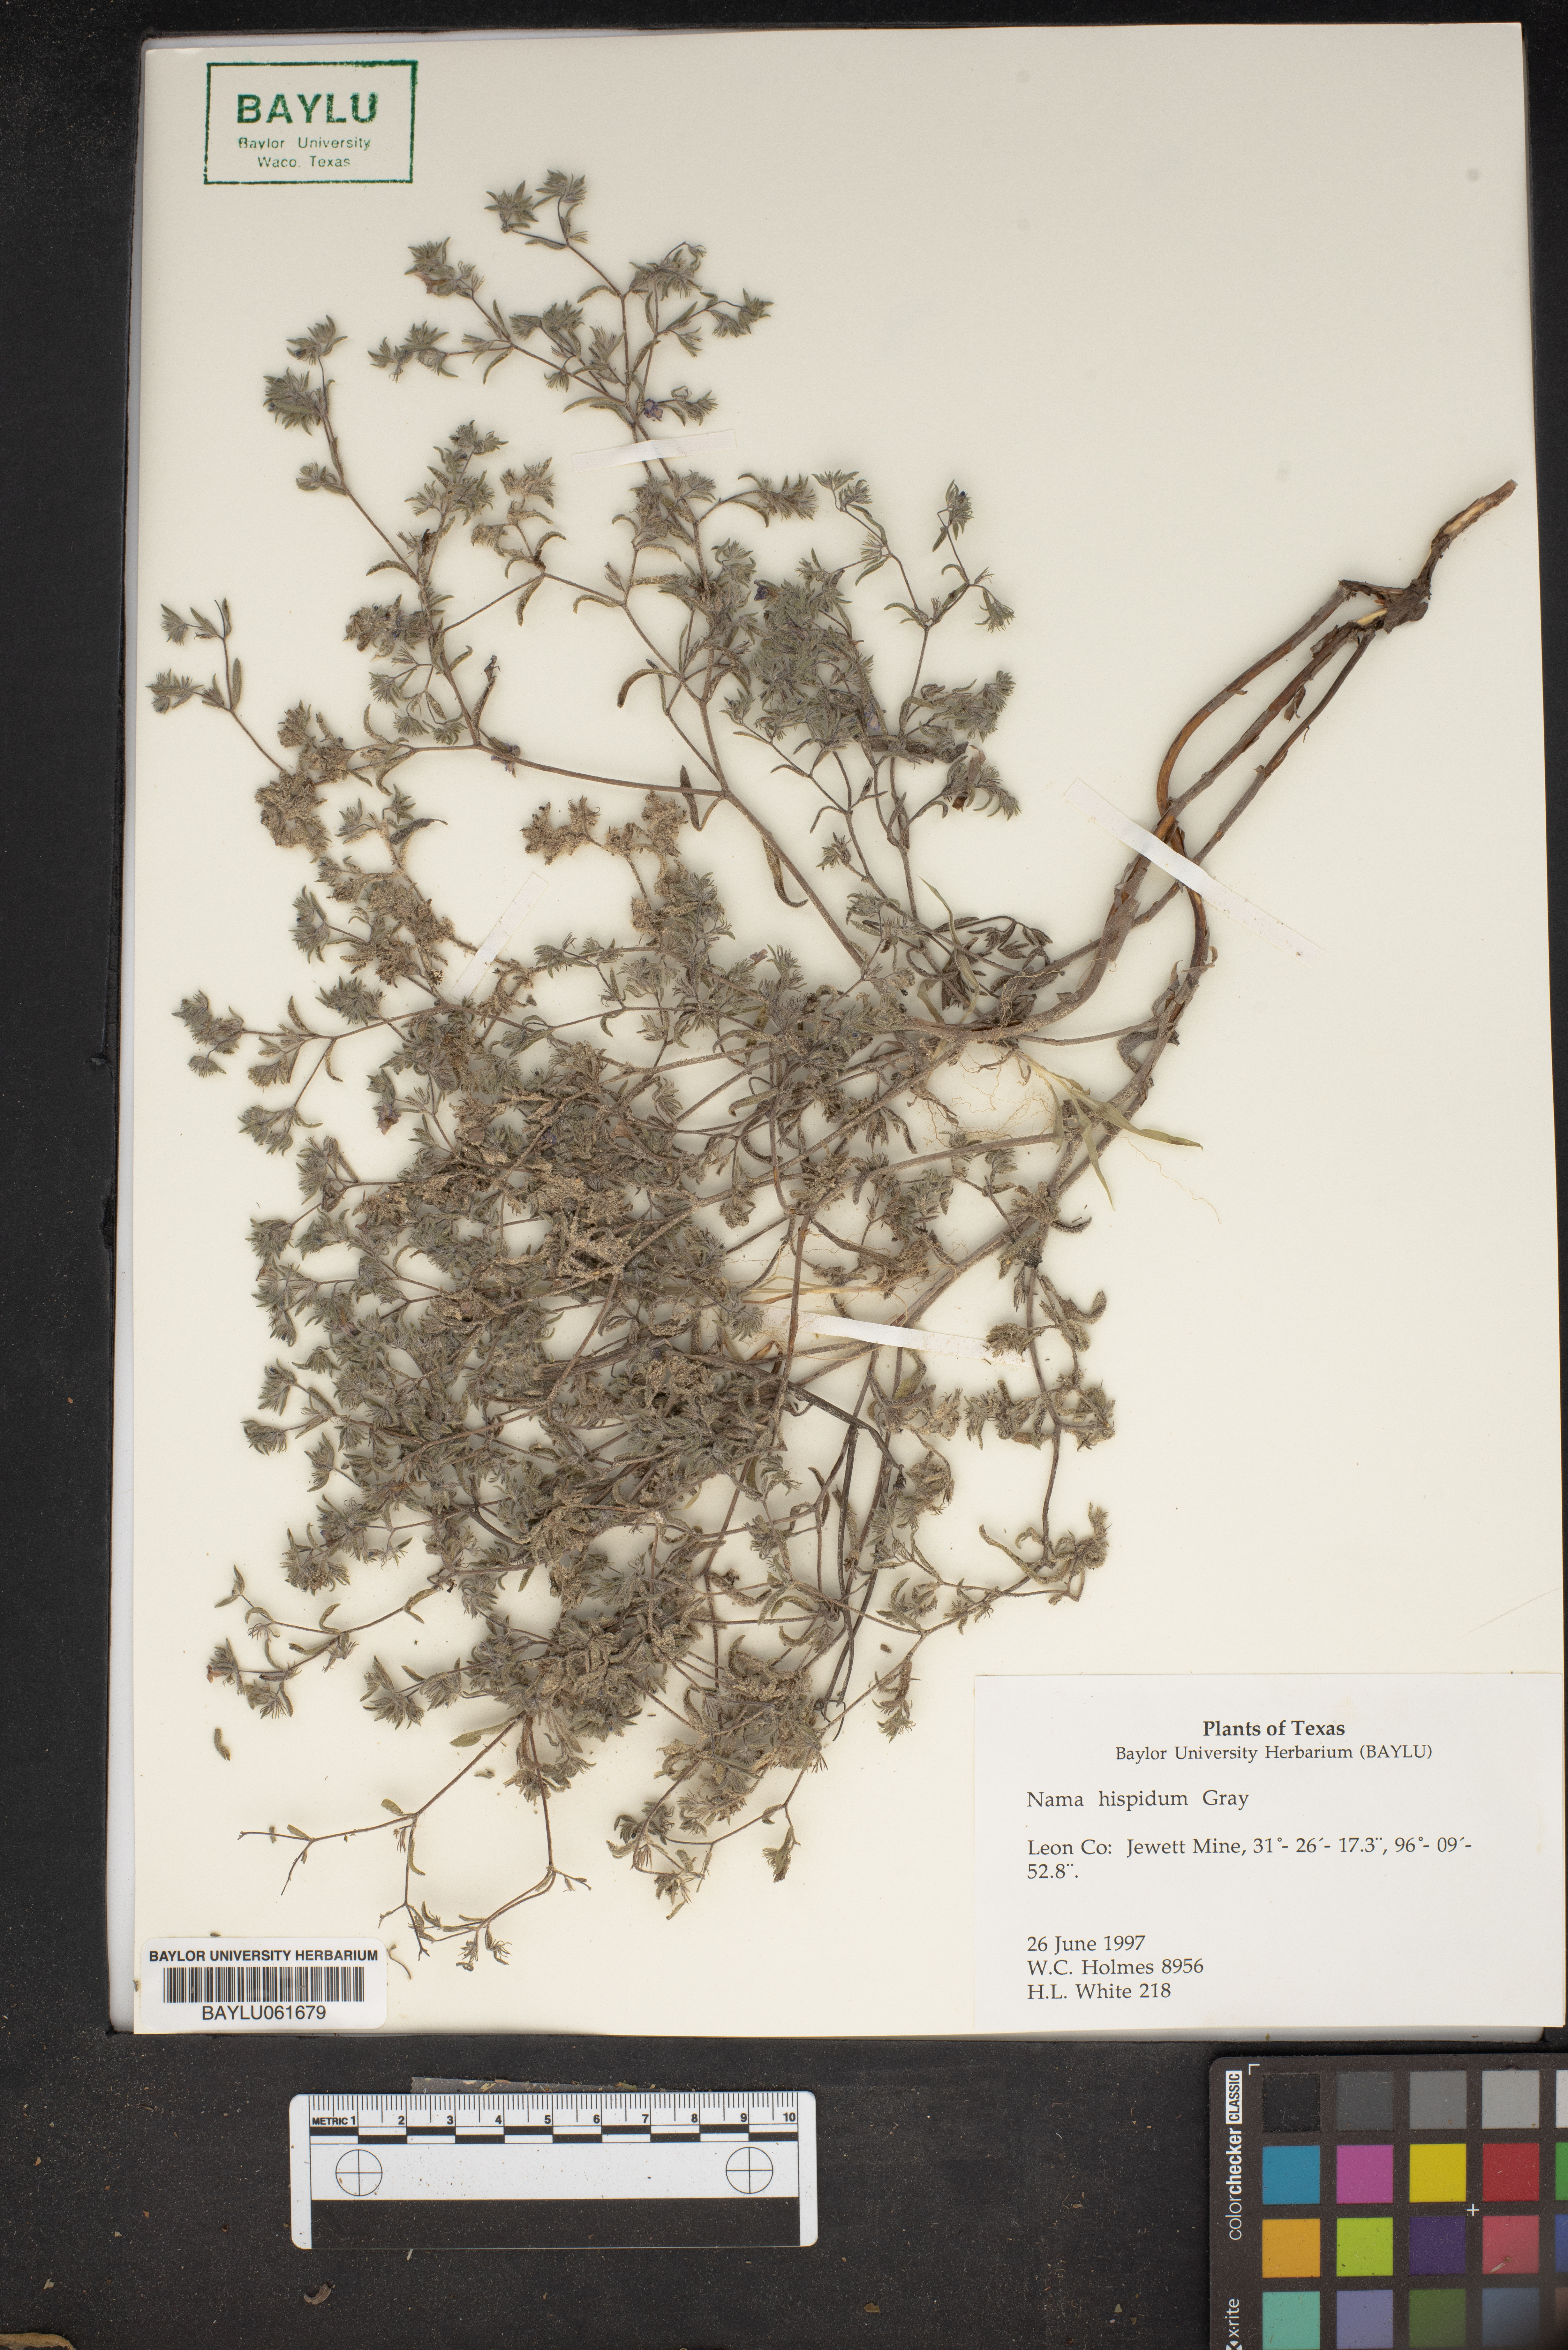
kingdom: Plantae
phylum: Tracheophyta
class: Magnoliopsida
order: Boraginales
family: Namaceae
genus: Nama
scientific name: Nama hispida
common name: Bristly nama
